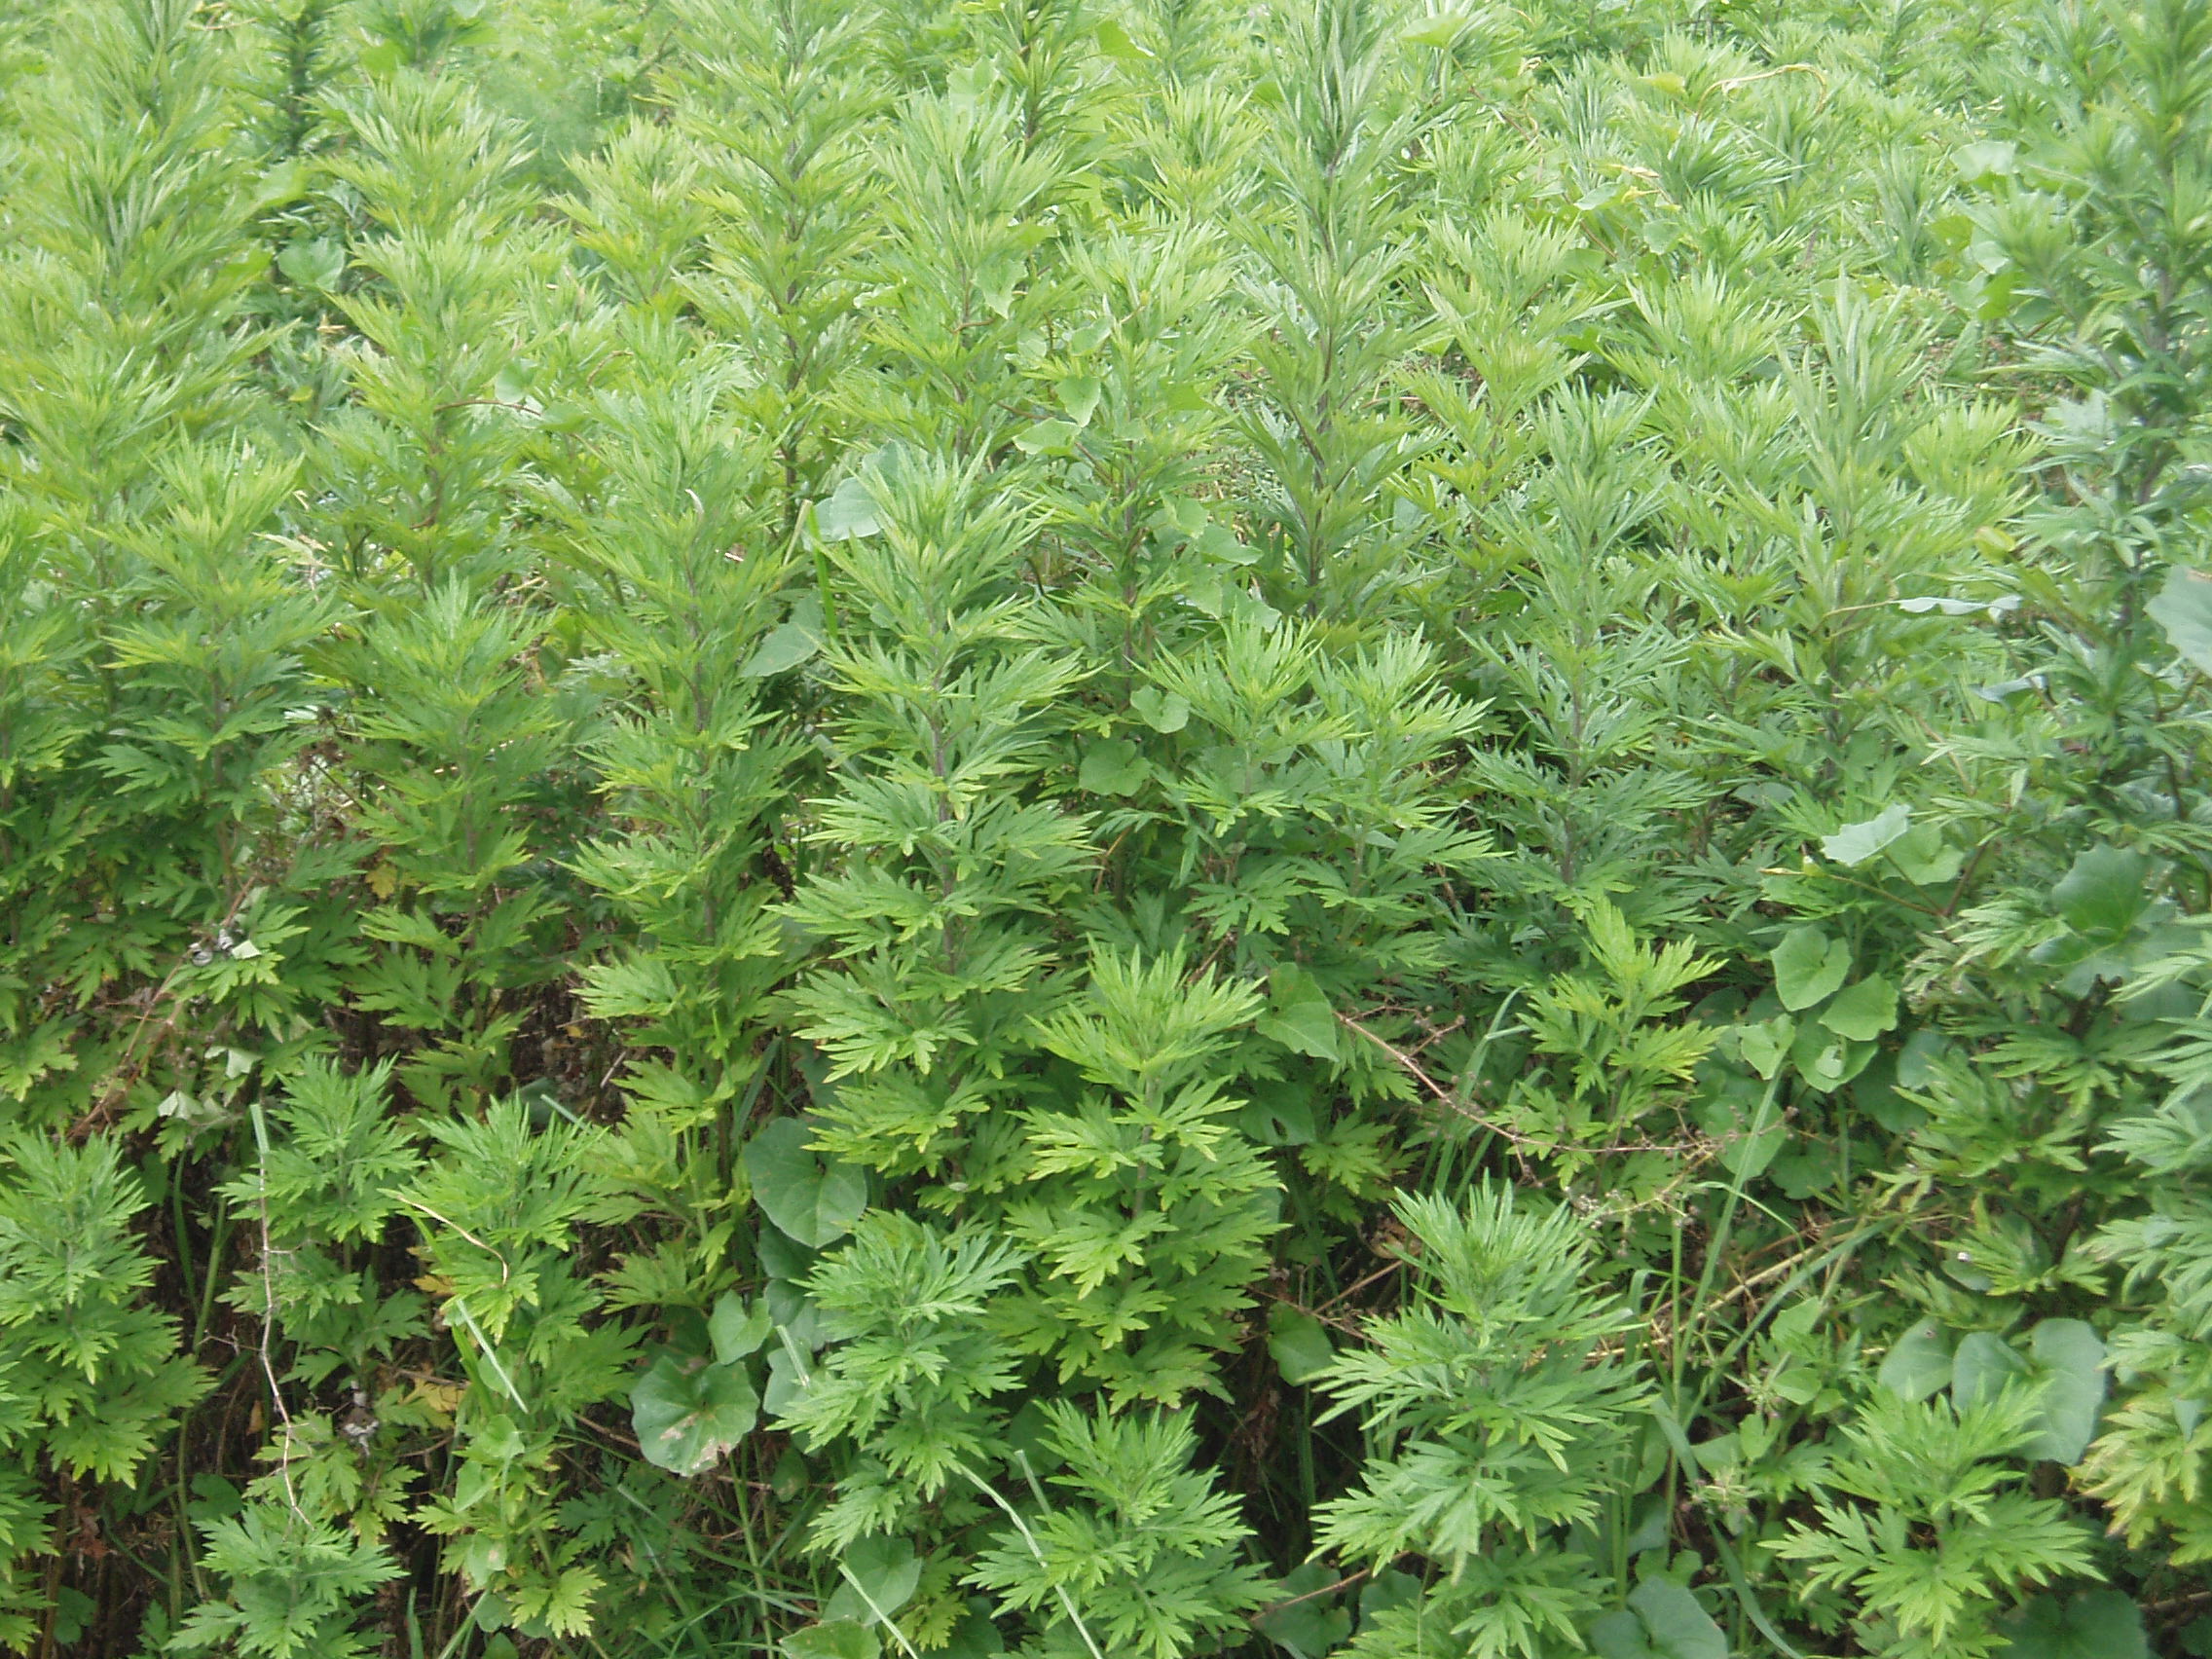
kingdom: Plantae
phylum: Tracheophyta
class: Magnoliopsida
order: Asterales
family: Asteraceae
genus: Artemisia
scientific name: Artemisia verlotiorum
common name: Chinese mugwort
